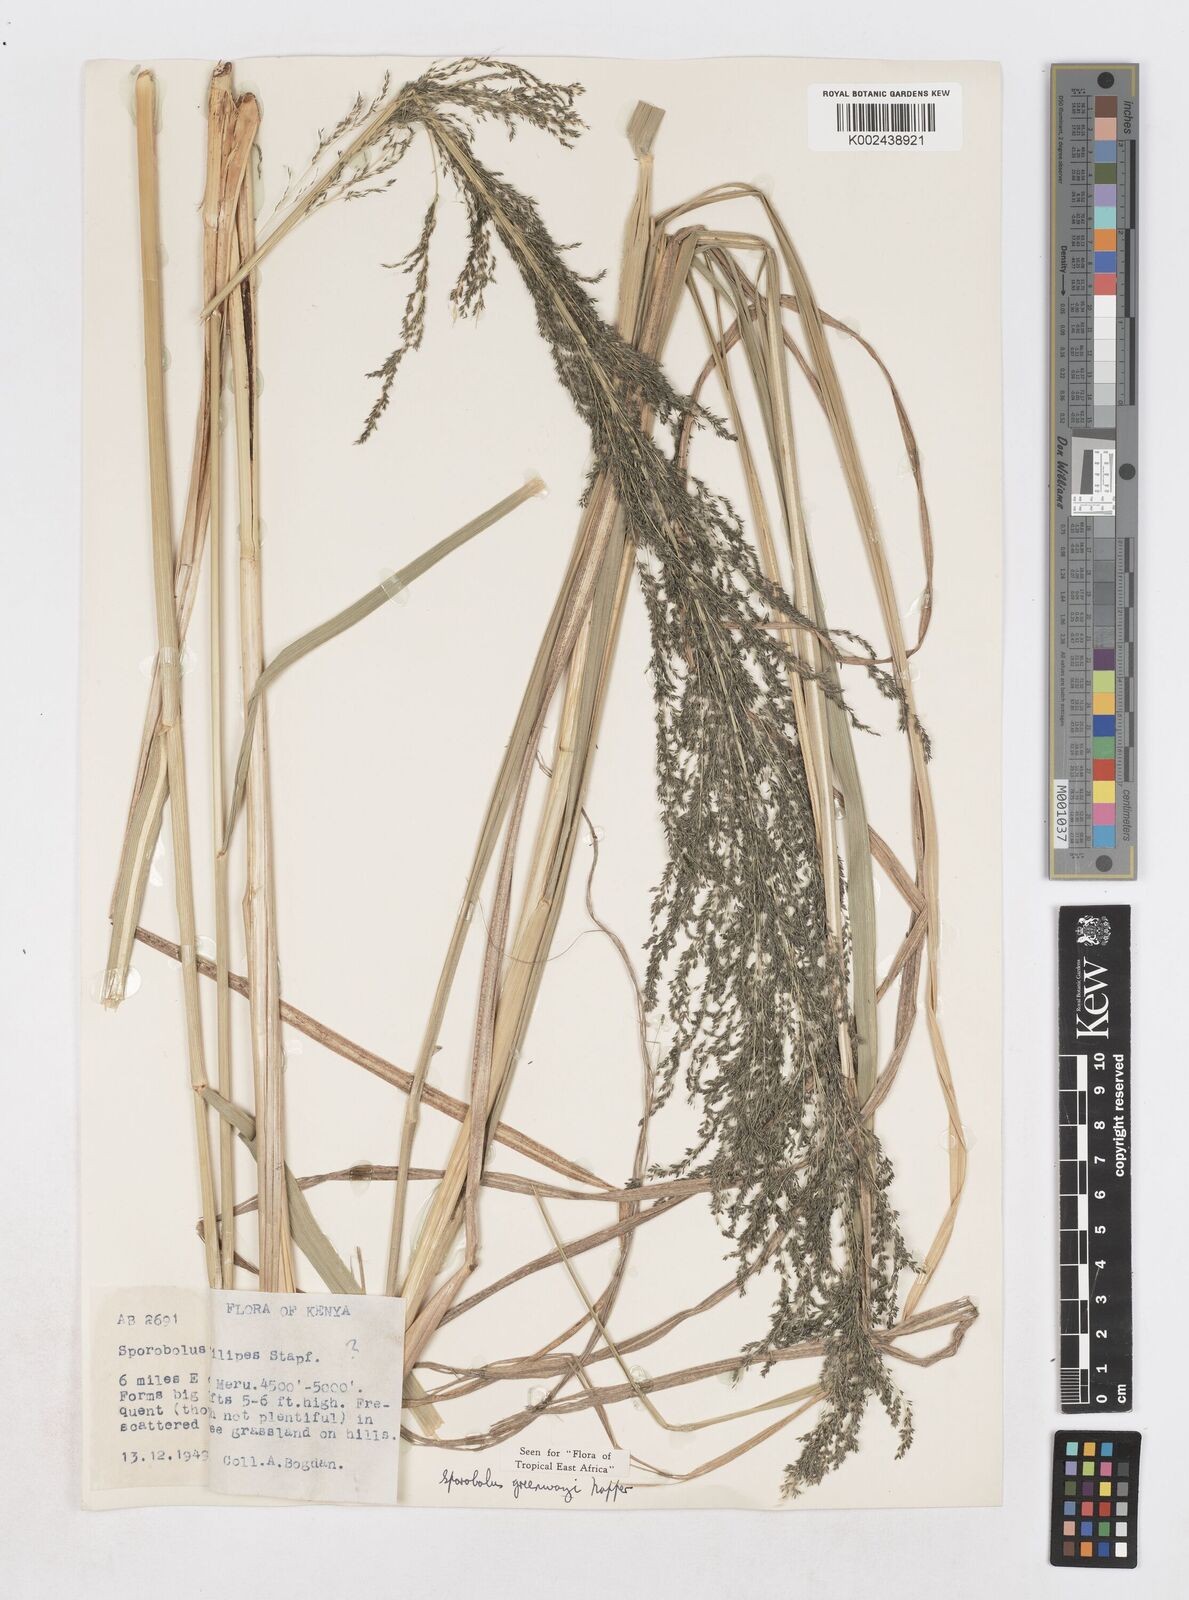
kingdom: Plantae
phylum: Tracheophyta
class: Liliopsida
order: Poales
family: Poaceae
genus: Sporobolus
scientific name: Sporobolus macranthelus
